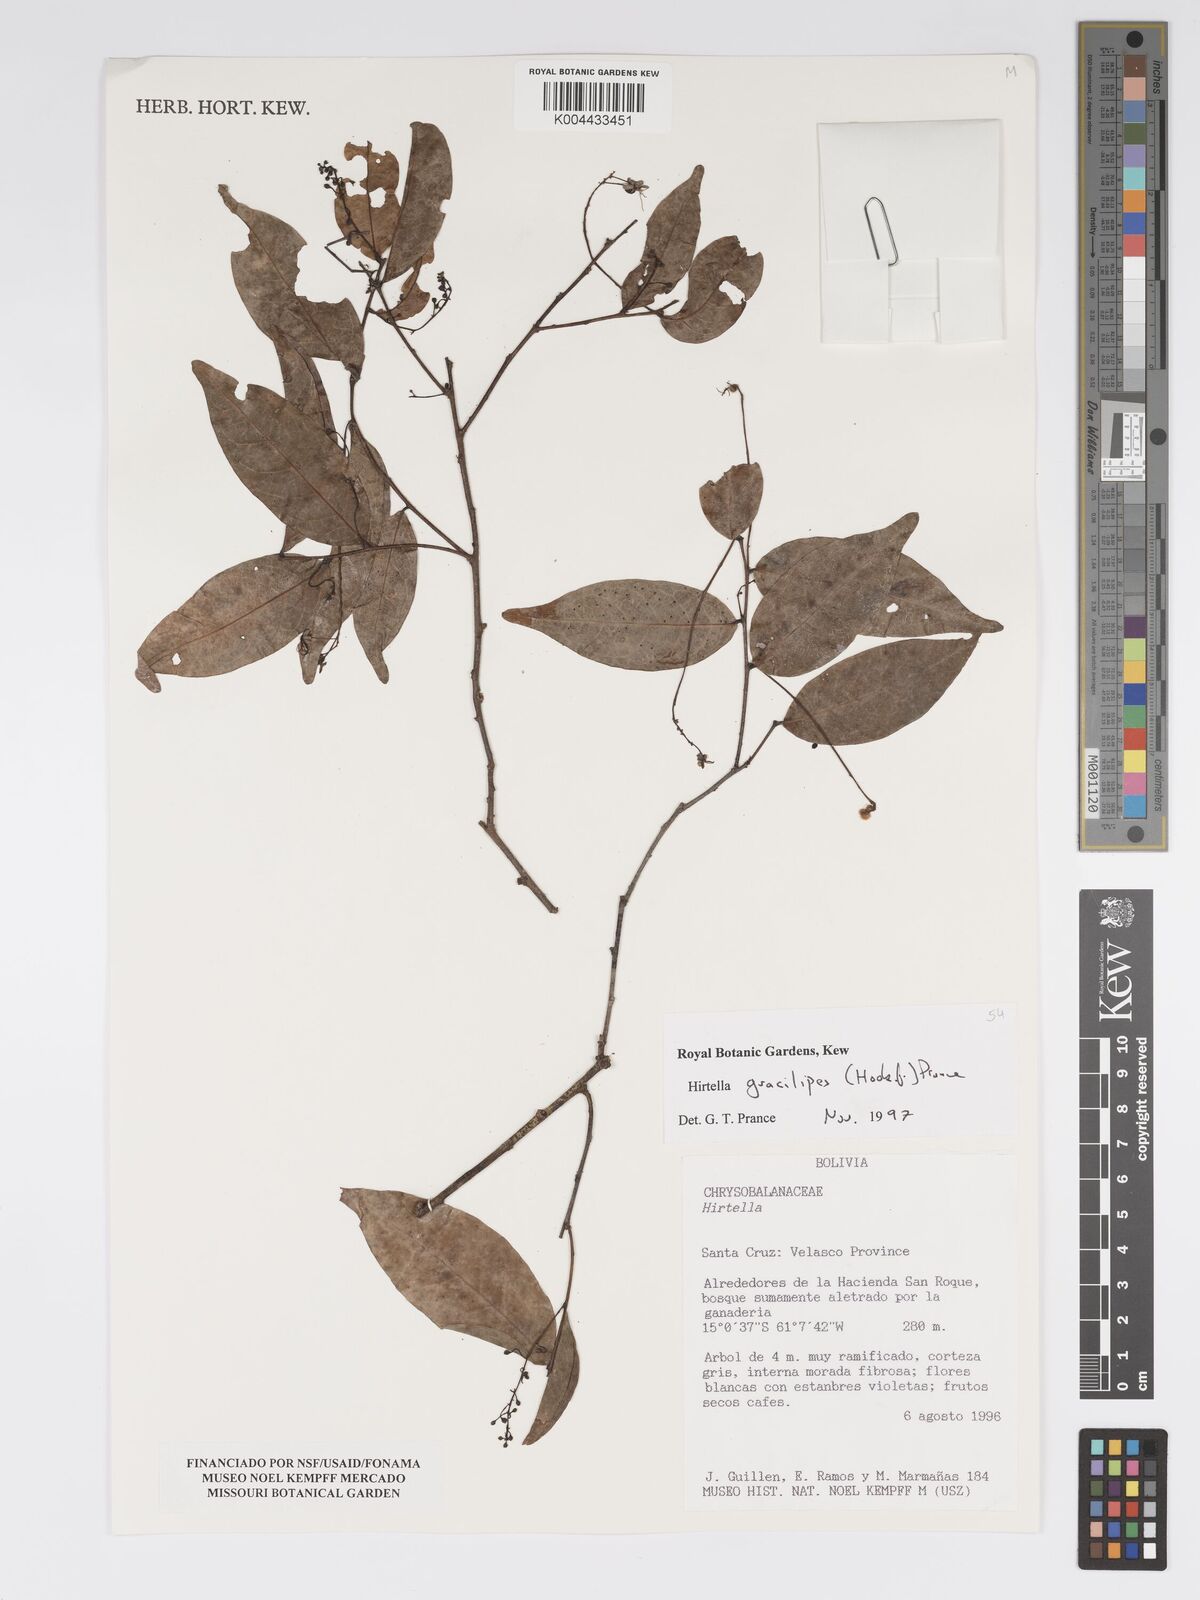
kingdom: Plantae
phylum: Tracheophyta
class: Magnoliopsida
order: Malpighiales
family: Chrysobalanaceae
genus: Hirtella
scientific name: Hirtella gracilipes
